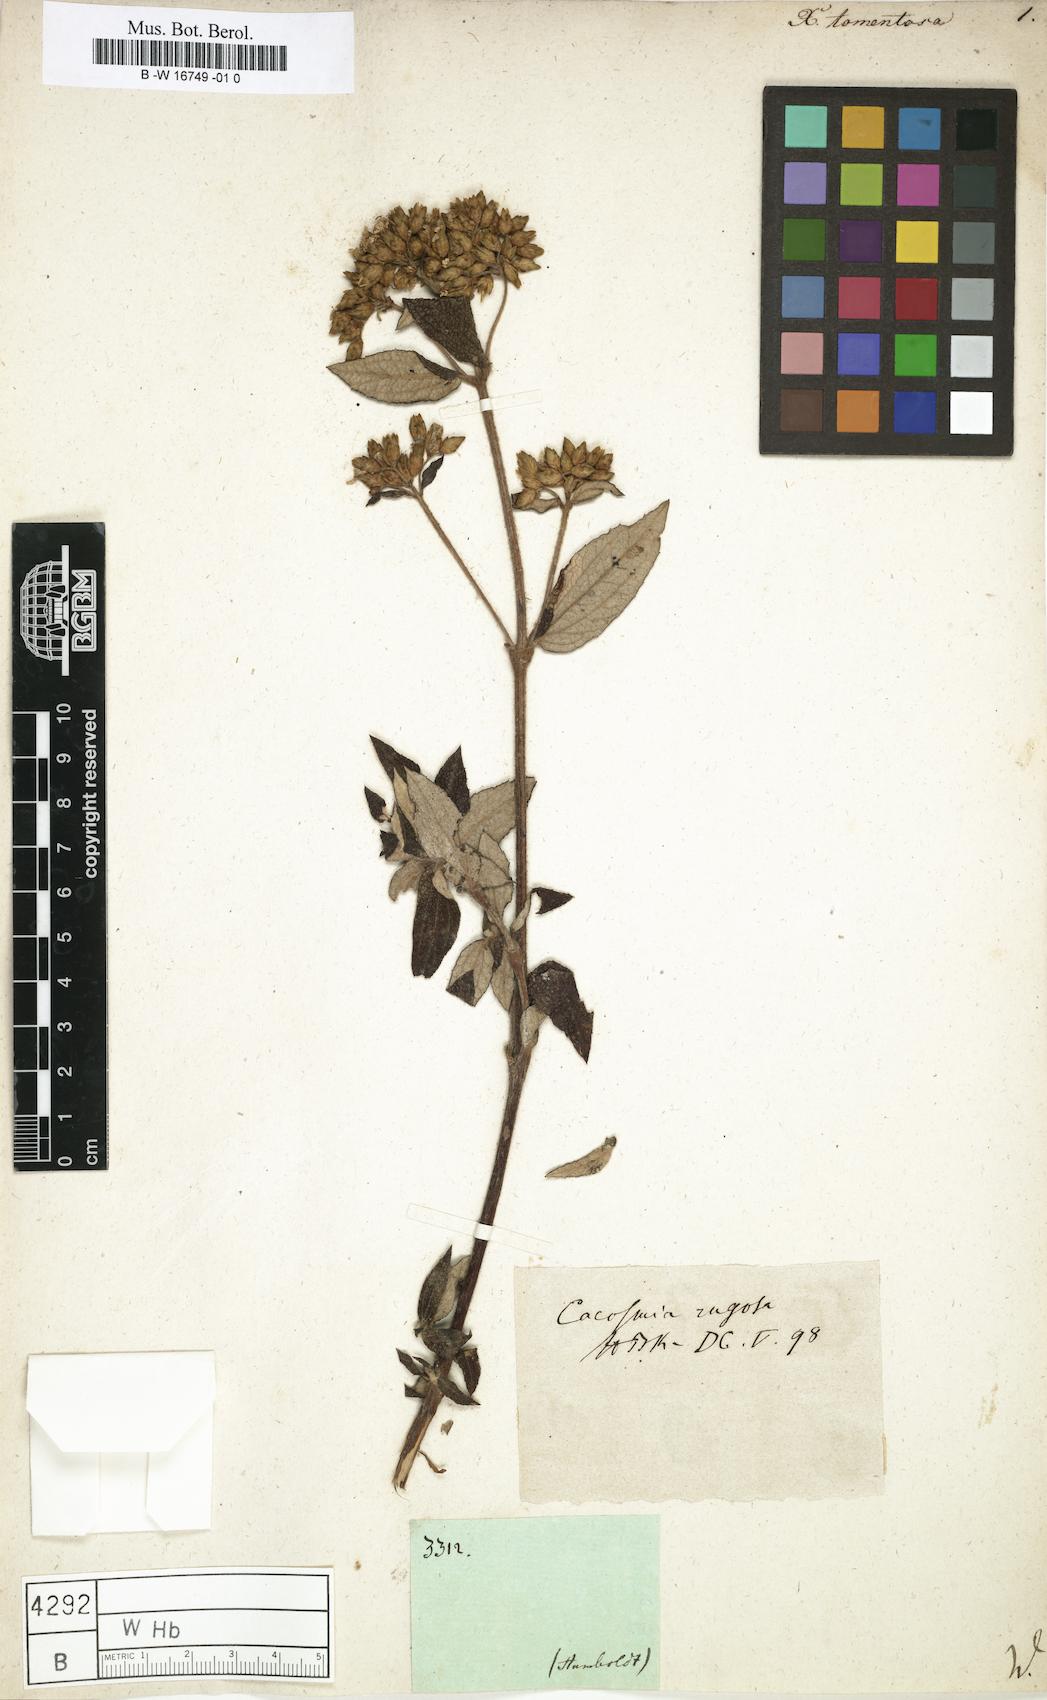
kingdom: Plantae
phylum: Tracheophyta
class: Magnoliopsida
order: Asterales
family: Asteraceae
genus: Cacosmia
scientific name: Cacosmia rugosa
